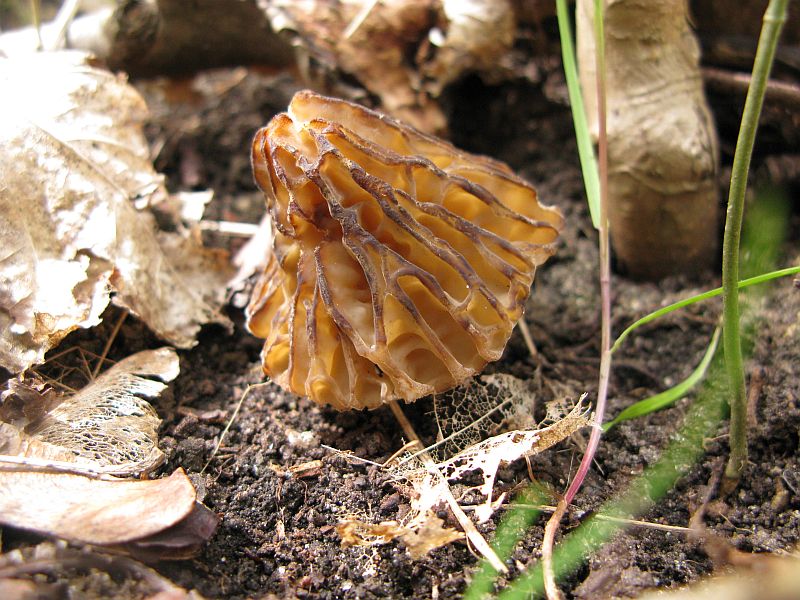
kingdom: Fungi
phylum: Ascomycota
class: Pezizomycetes
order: Pezizales
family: Morchellaceae
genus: Morchella
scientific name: Morchella semilibera
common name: hætte-morkel
